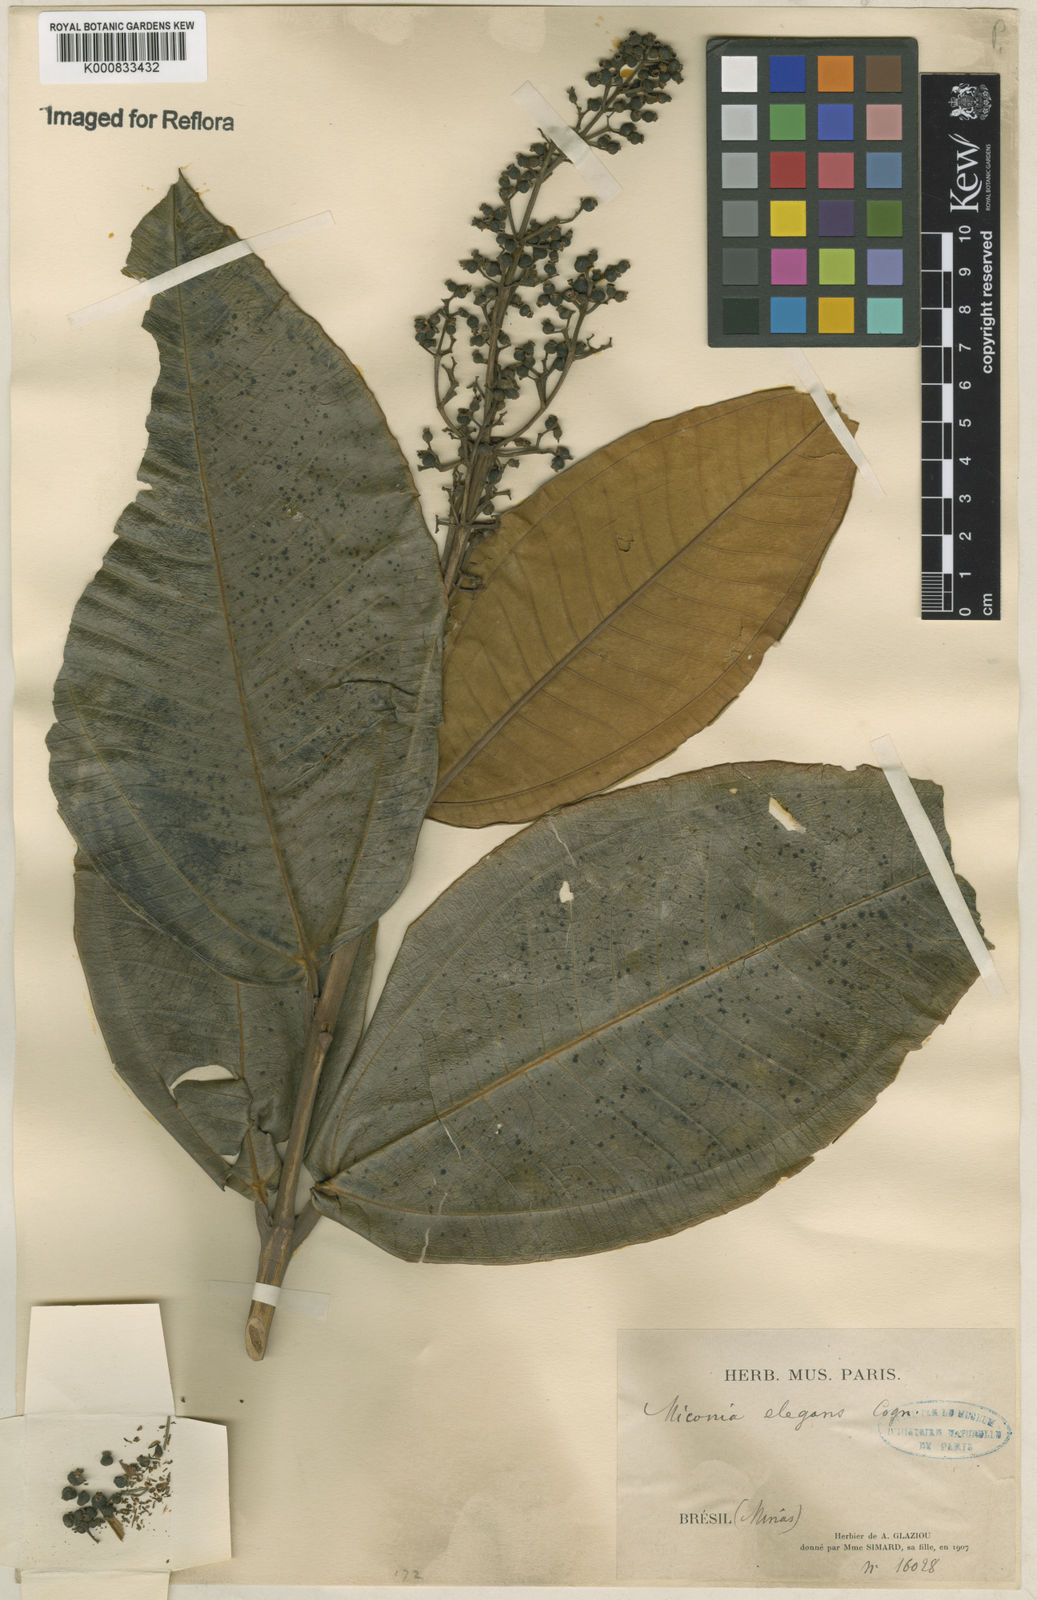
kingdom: Plantae
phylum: Tracheophyta
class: Magnoliopsida
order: Myrtales
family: Melastomataceae
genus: Miconia
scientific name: Miconia elegans
